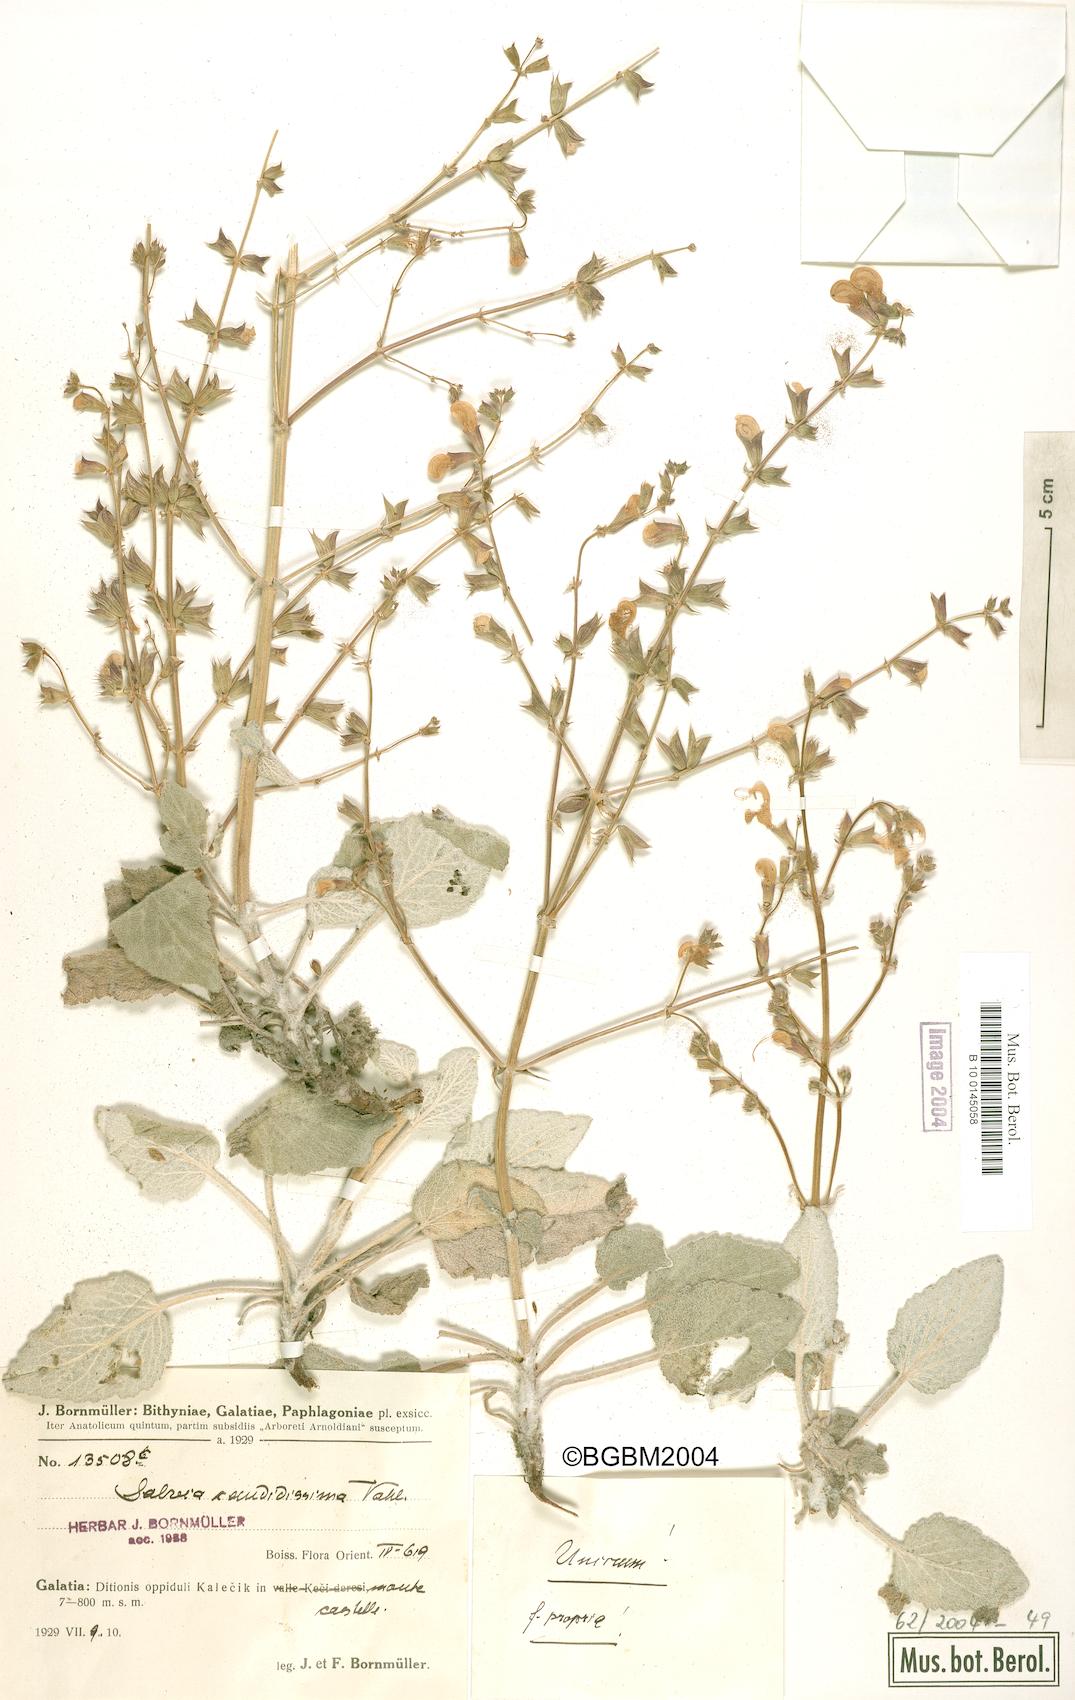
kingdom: Plantae
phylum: Tracheophyta
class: Magnoliopsida
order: Lamiales
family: Lamiaceae
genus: Salvia
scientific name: Salvia candidissima
